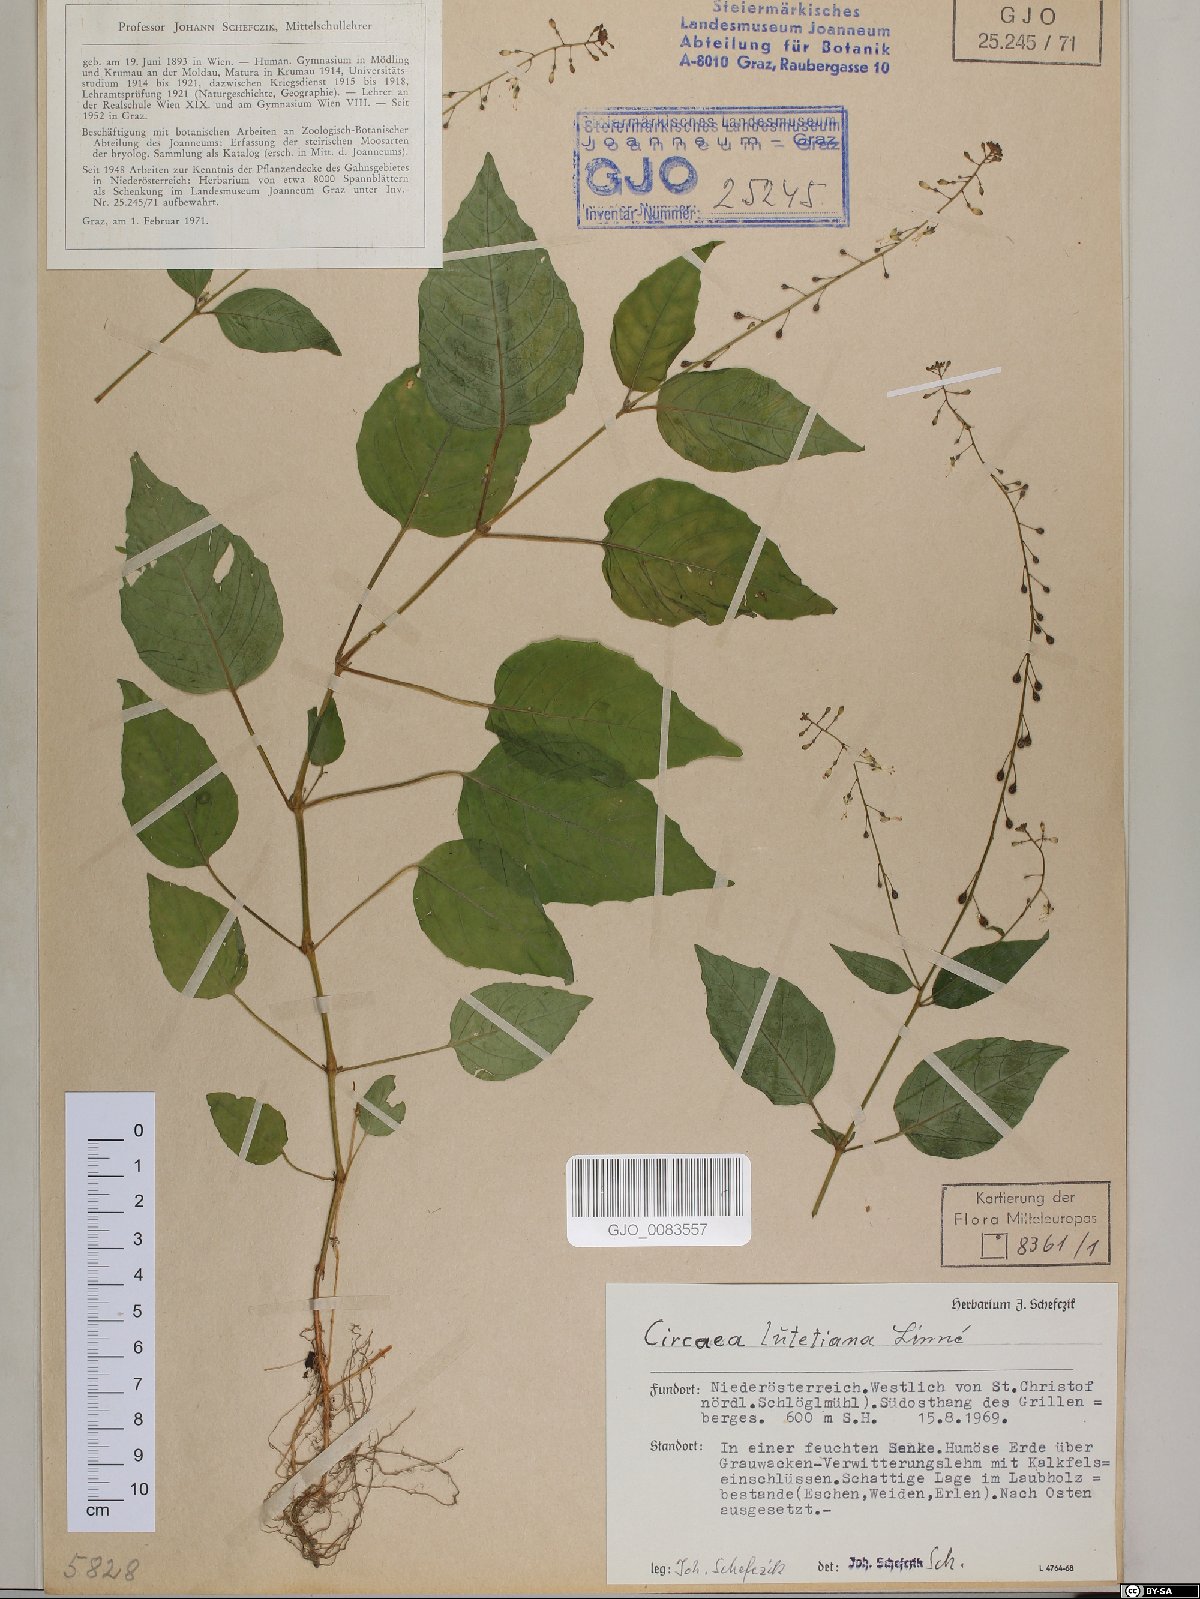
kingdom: Plantae
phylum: Tracheophyta
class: Magnoliopsida
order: Myrtales
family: Onagraceae
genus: Circaea
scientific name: Circaea lutetiana
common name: Enchanter's-nightshade
